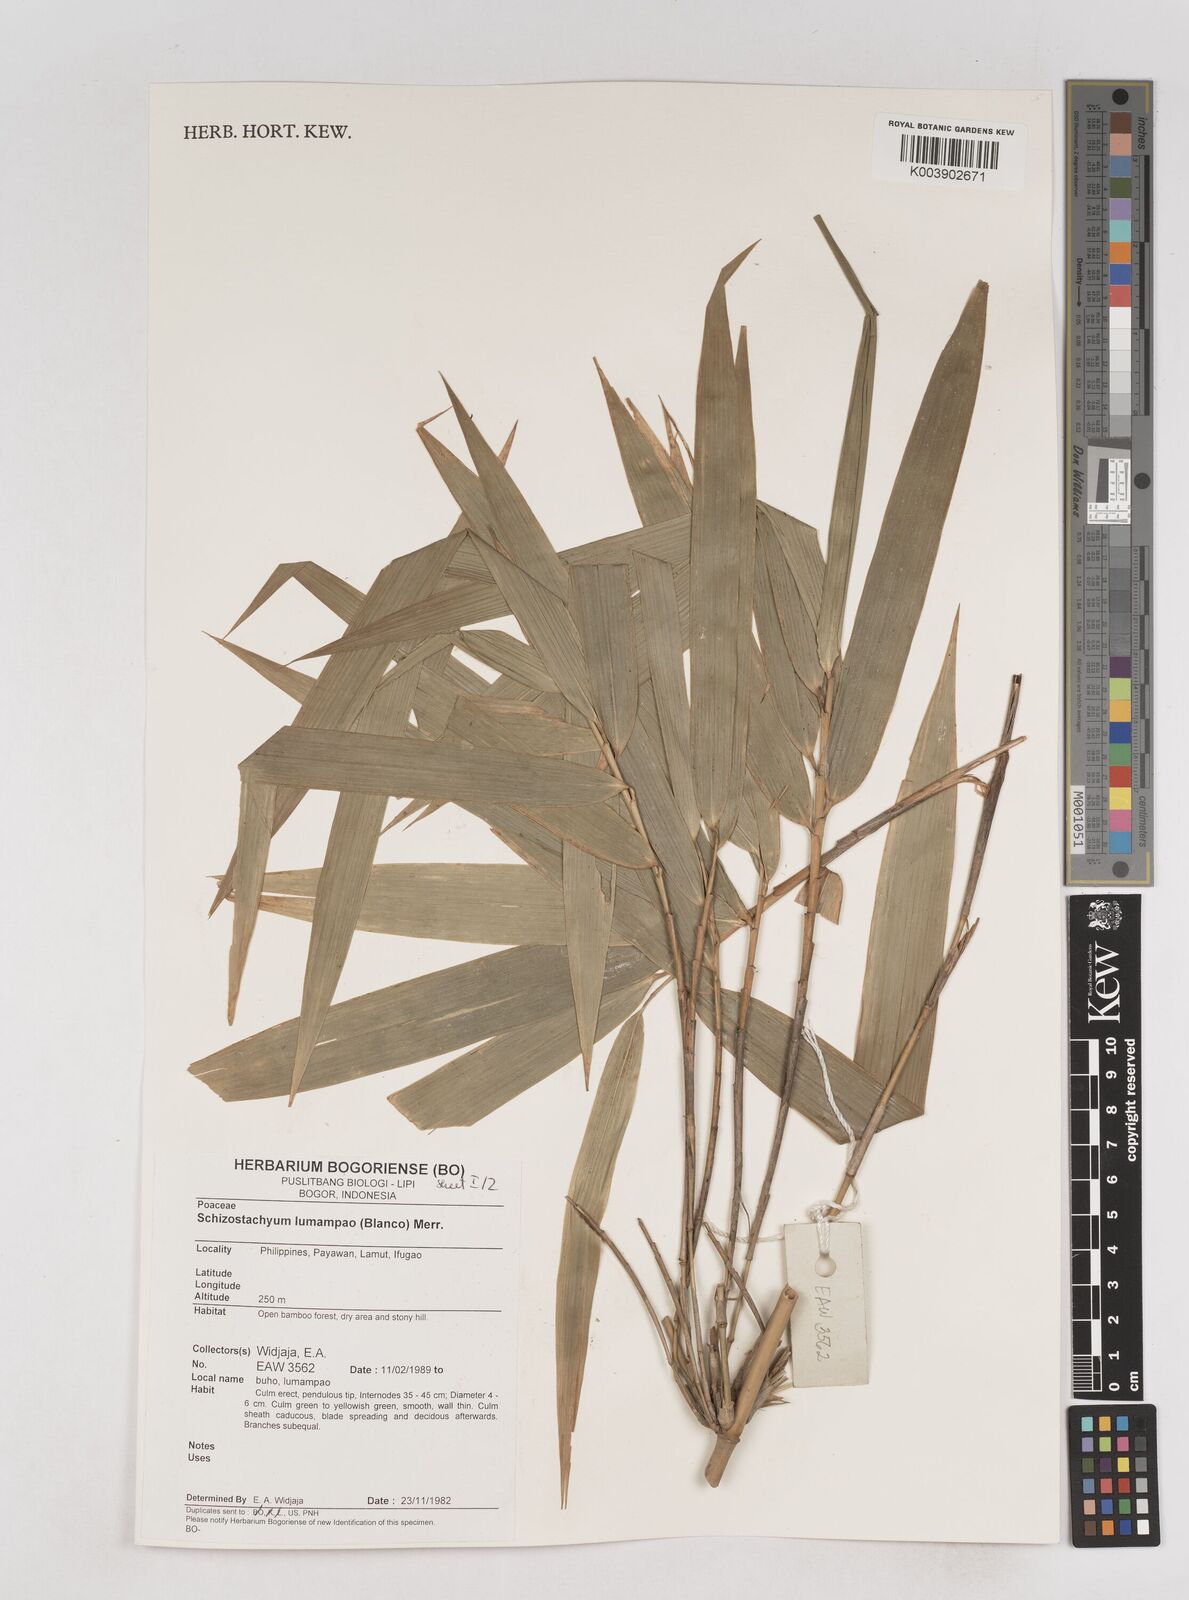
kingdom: Plantae
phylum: Tracheophyta
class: Liliopsida
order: Poales
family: Poaceae
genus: Schizostachyum
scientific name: Schizostachyum lumampao
